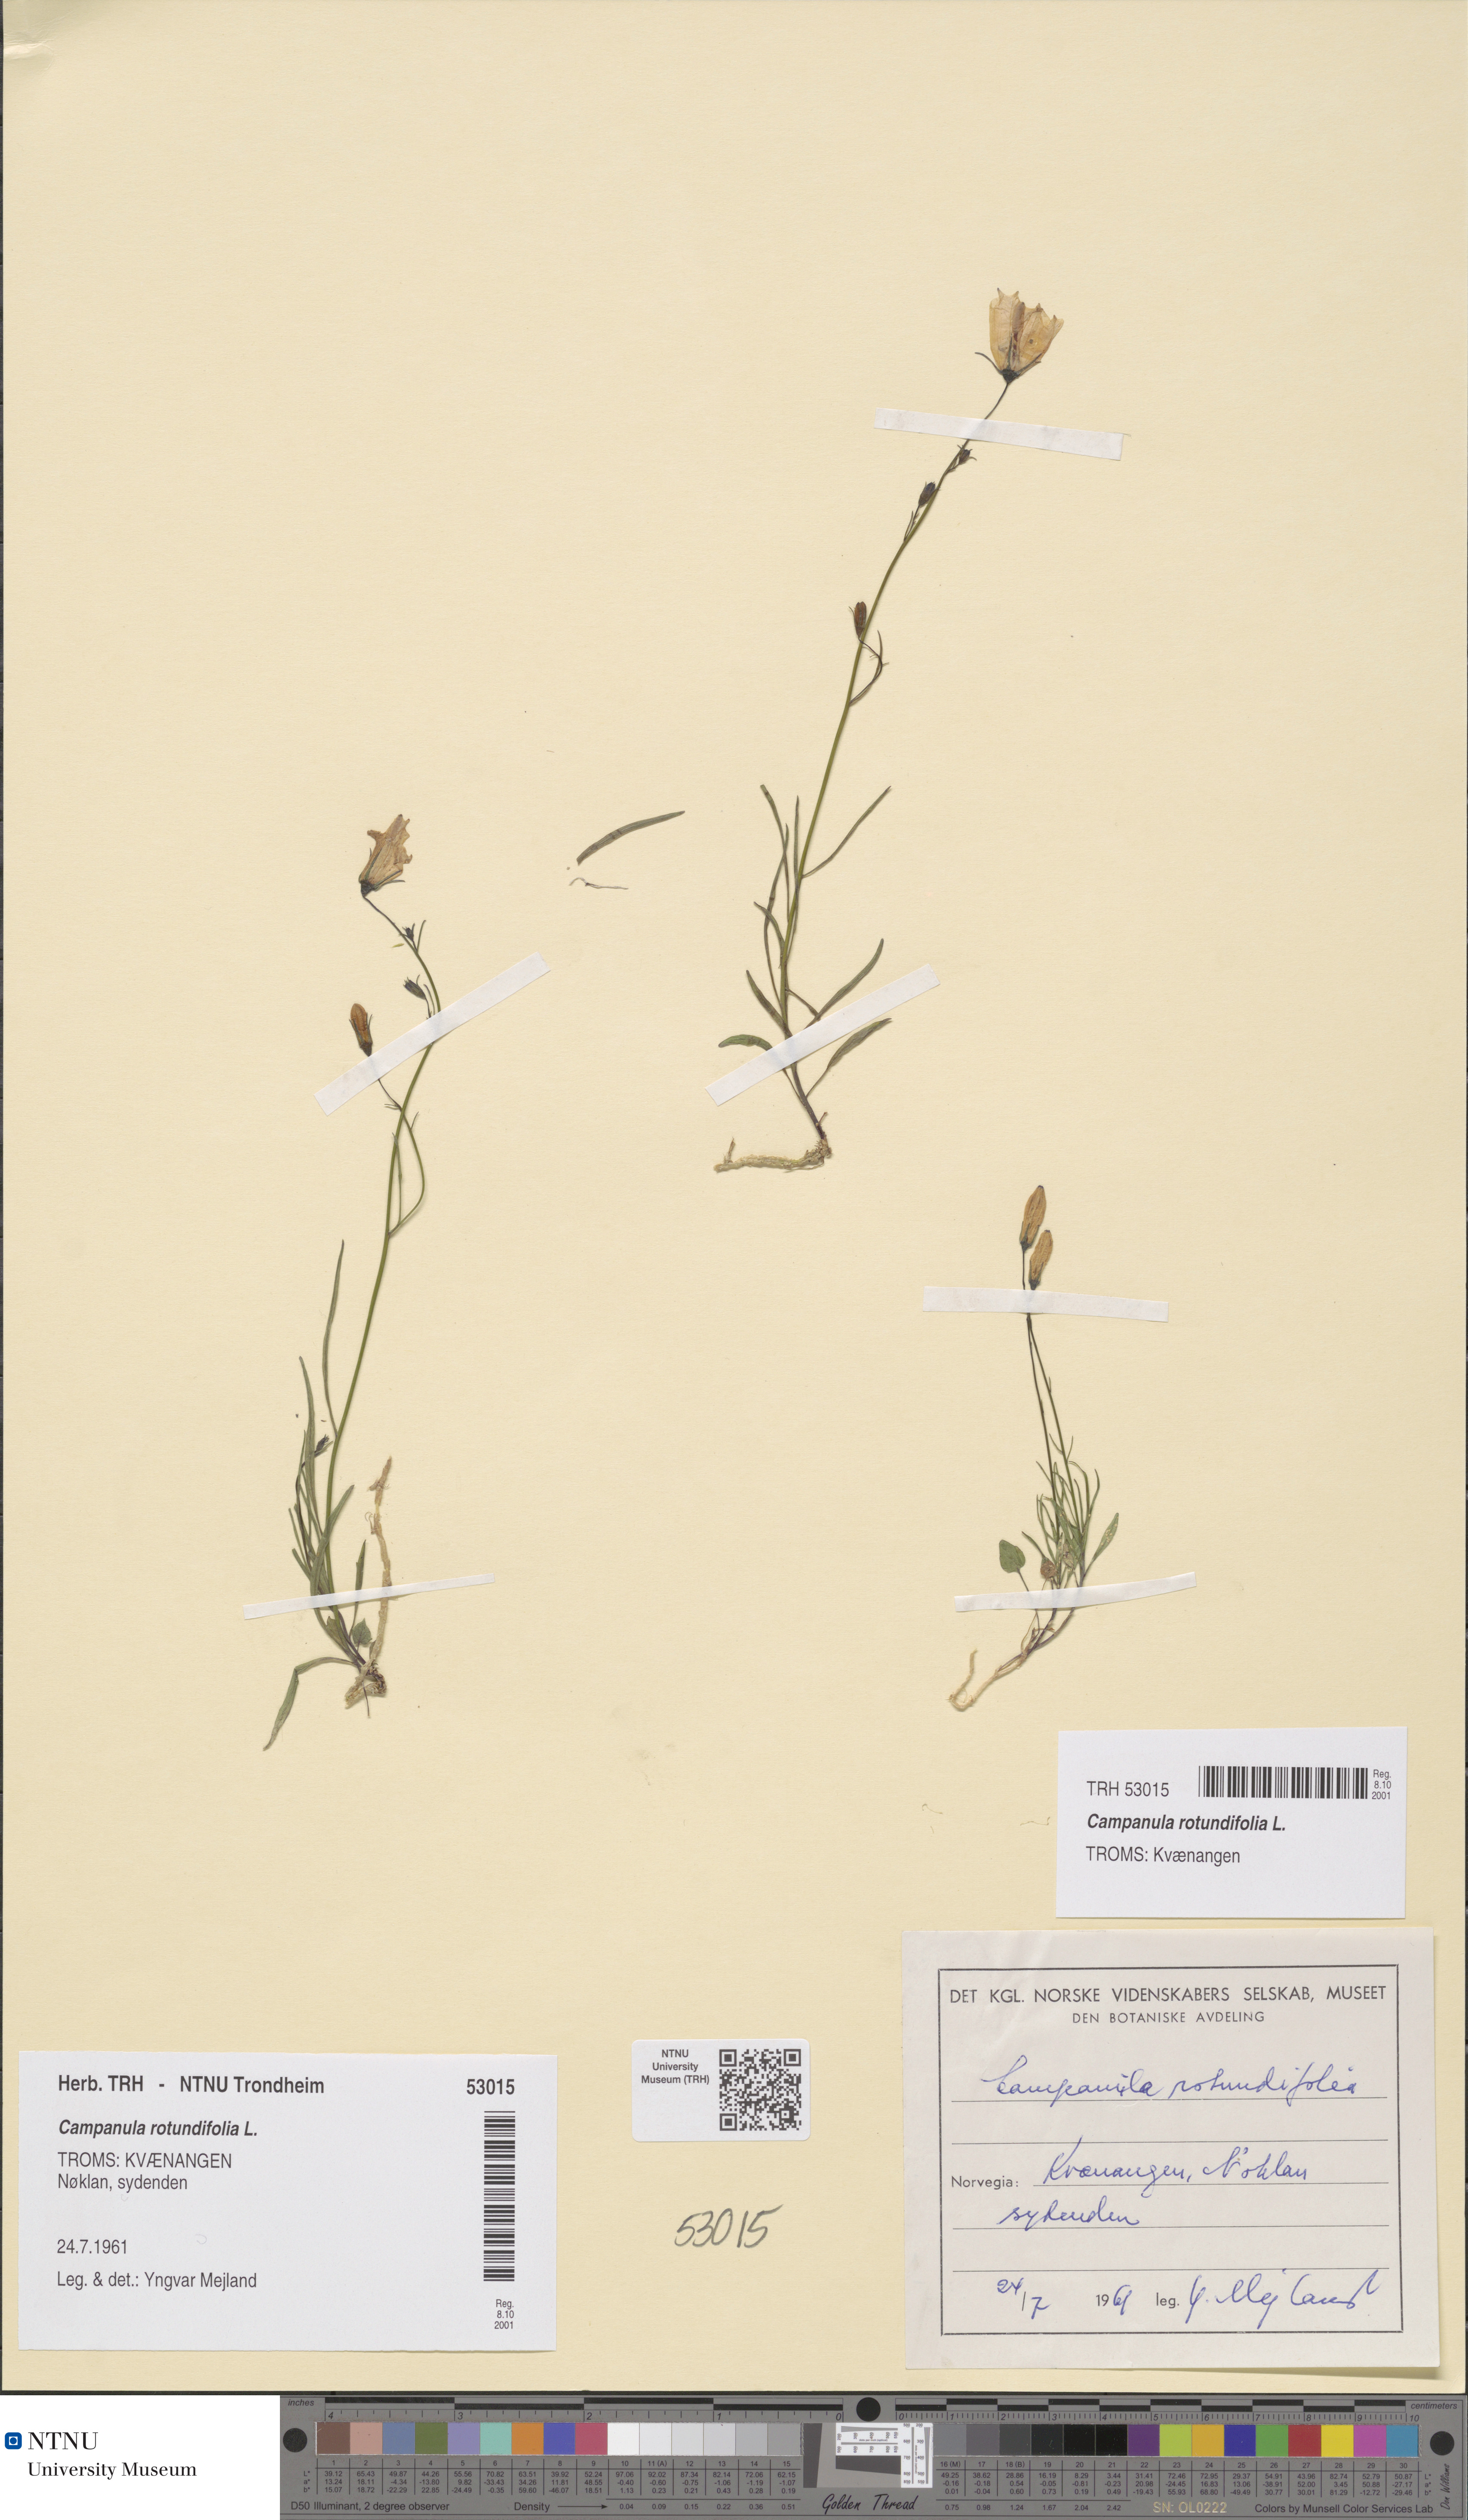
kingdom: Plantae
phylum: Tracheophyta
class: Magnoliopsida
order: Asterales
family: Campanulaceae
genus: Campanula
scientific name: Campanula rotundifolia
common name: Harebell
